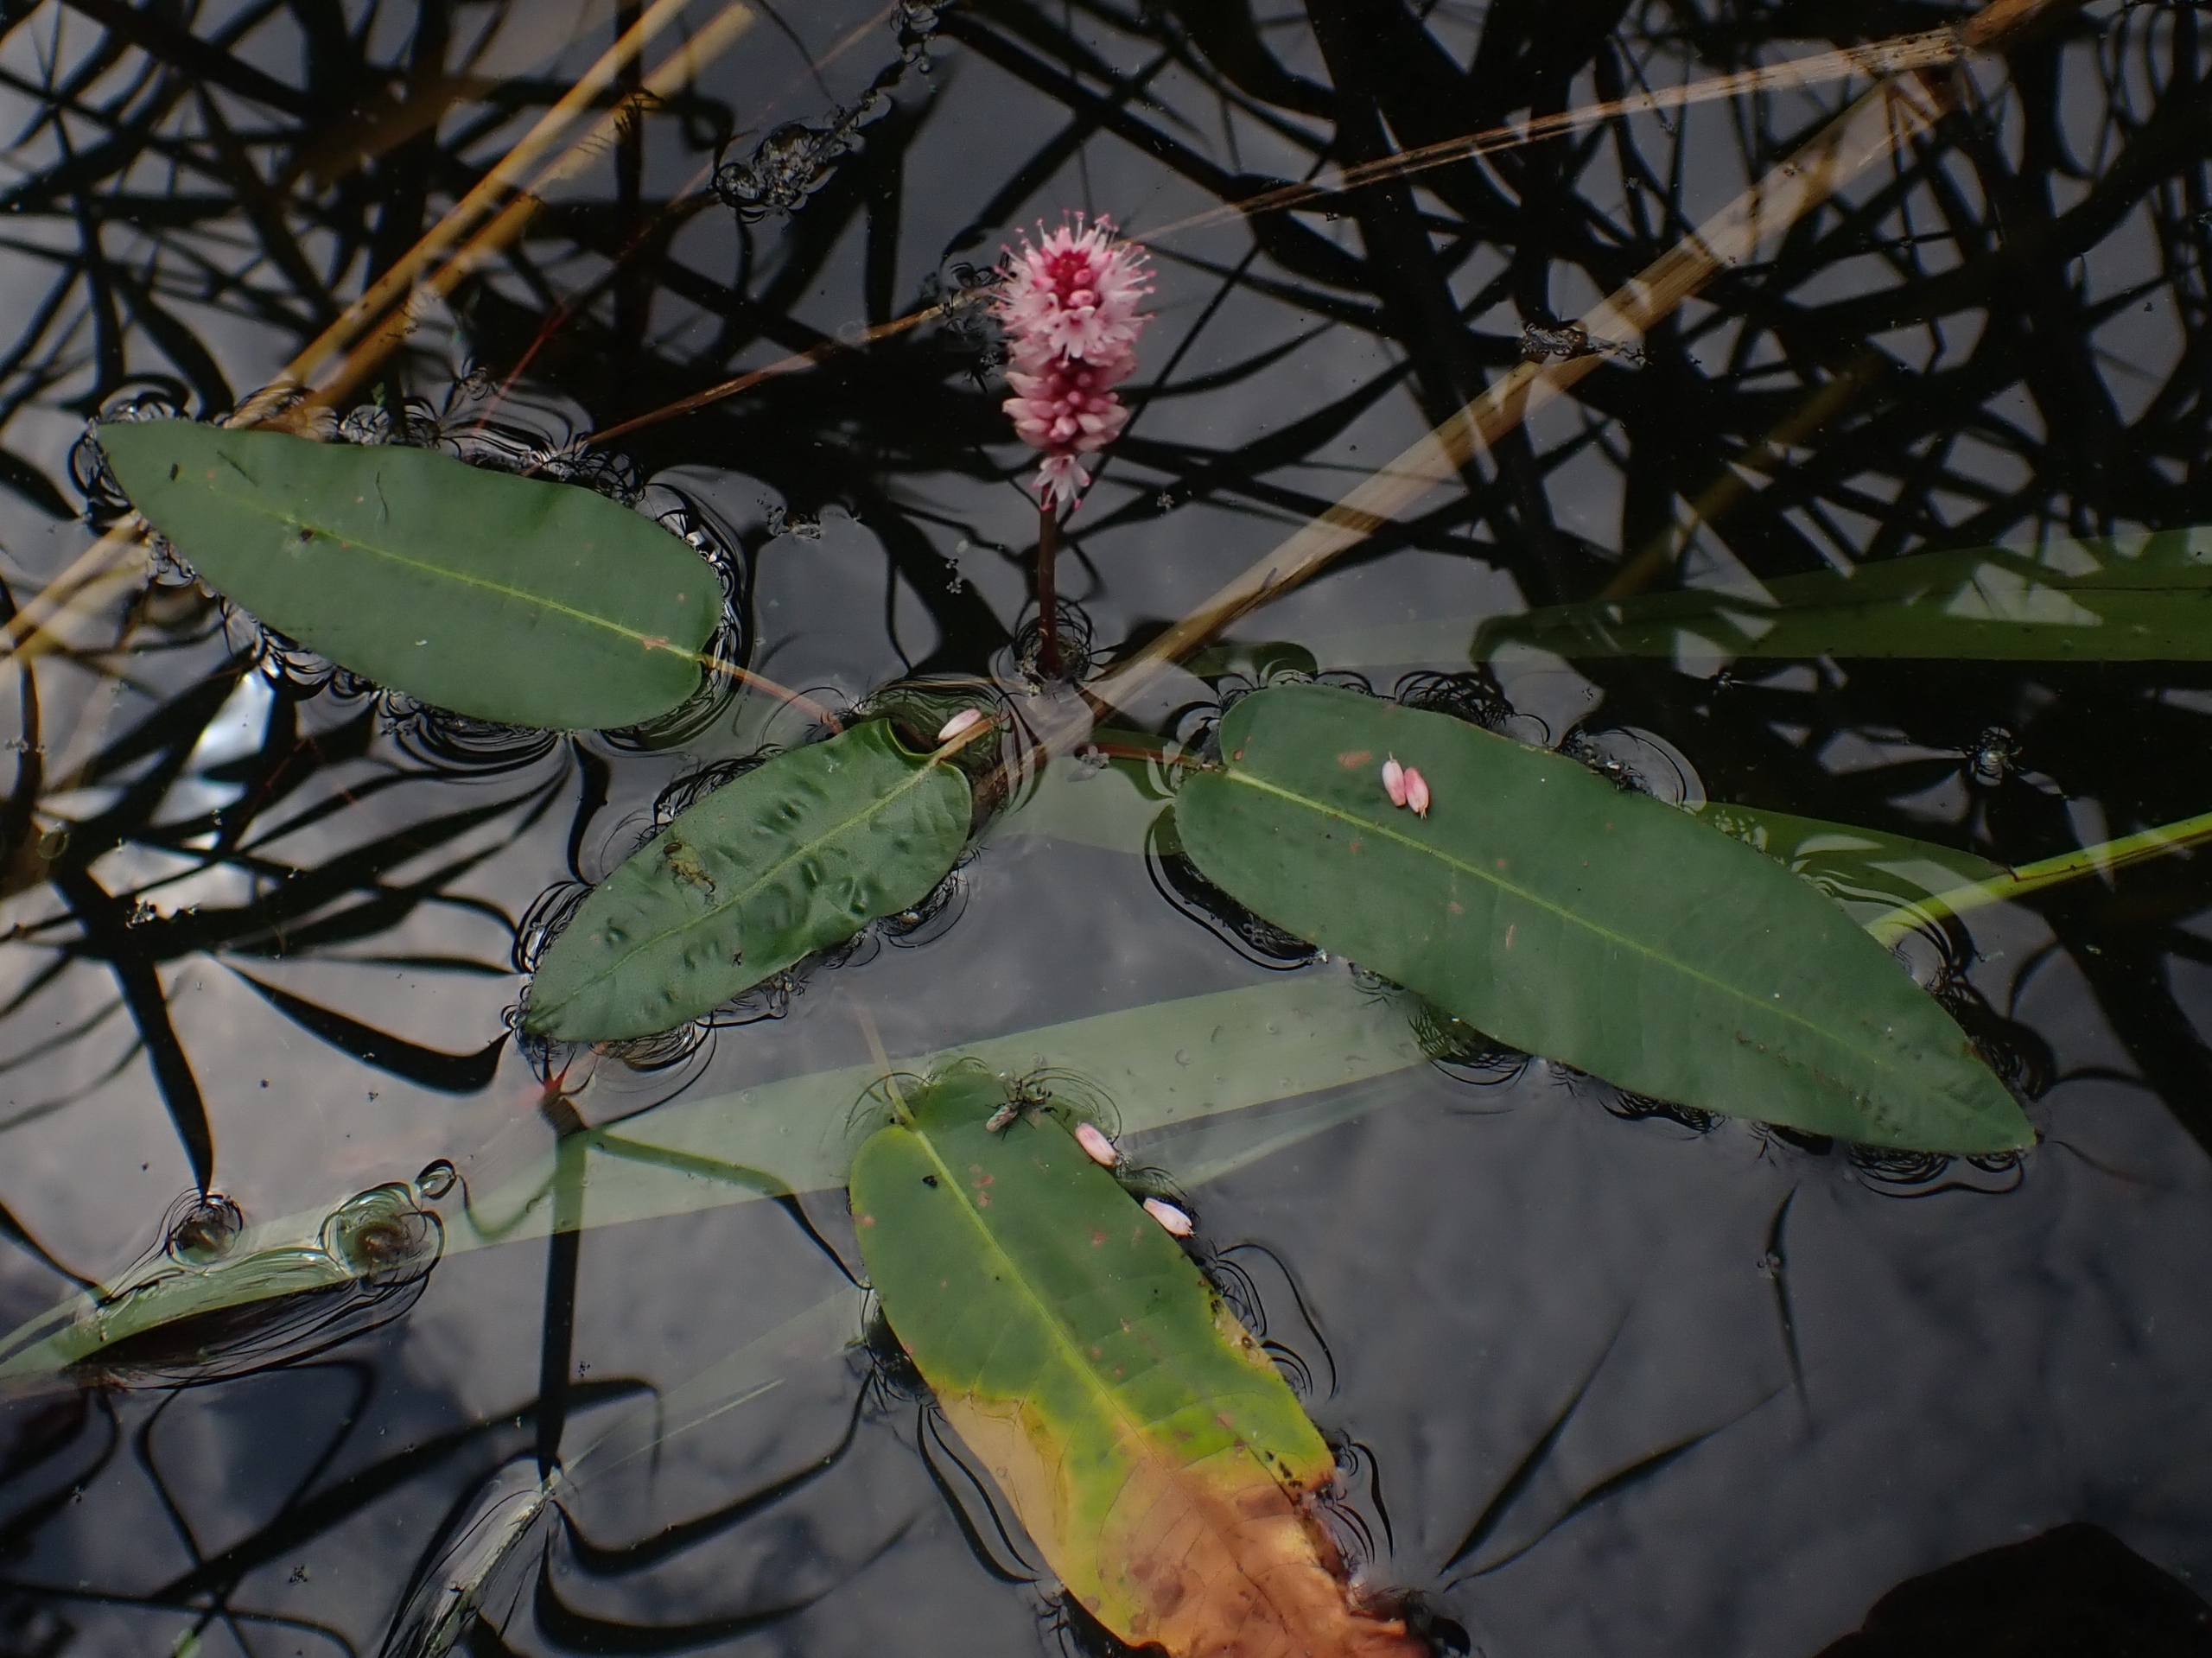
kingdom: Plantae
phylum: Tracheophyta
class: Magnoliopsida
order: Caryophyllales
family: Polygonaceae
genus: Persicaria
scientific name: Persicaria amphibia
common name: Vand-pileurt
